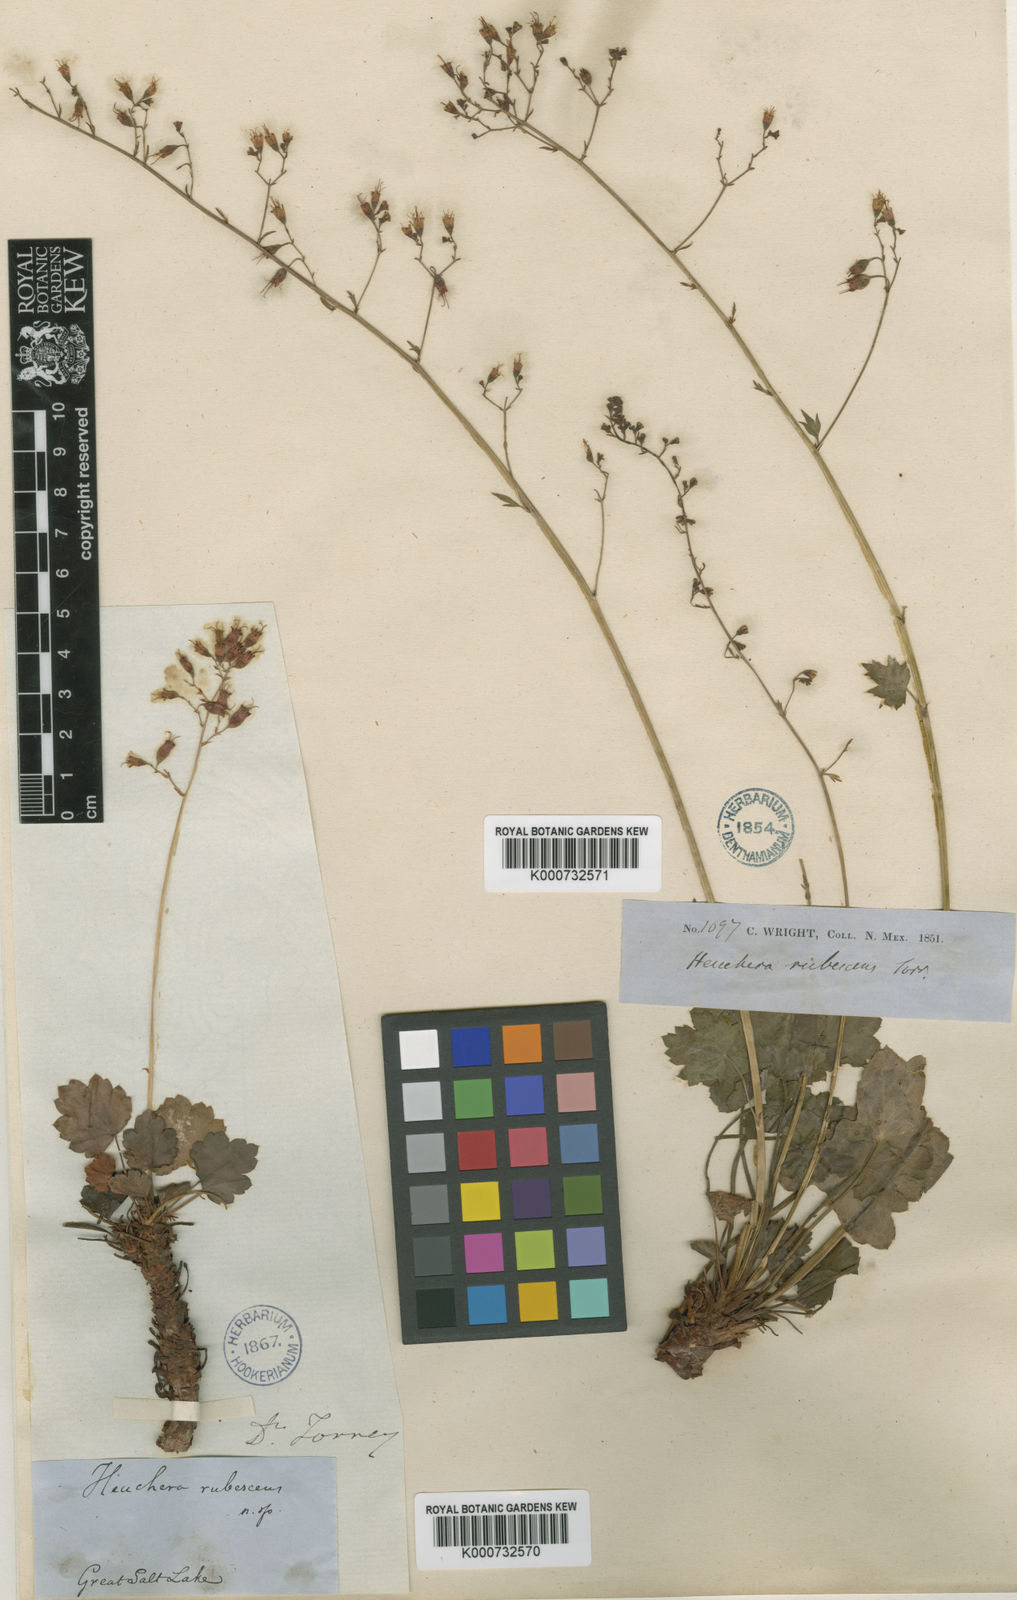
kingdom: Plantae
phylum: Tracheophyta
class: Magnoliopsida
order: Saxifragales
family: Saxifragaceae
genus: Heuchera
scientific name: Heuchera rubescens
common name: Jack-o'the-rocks
